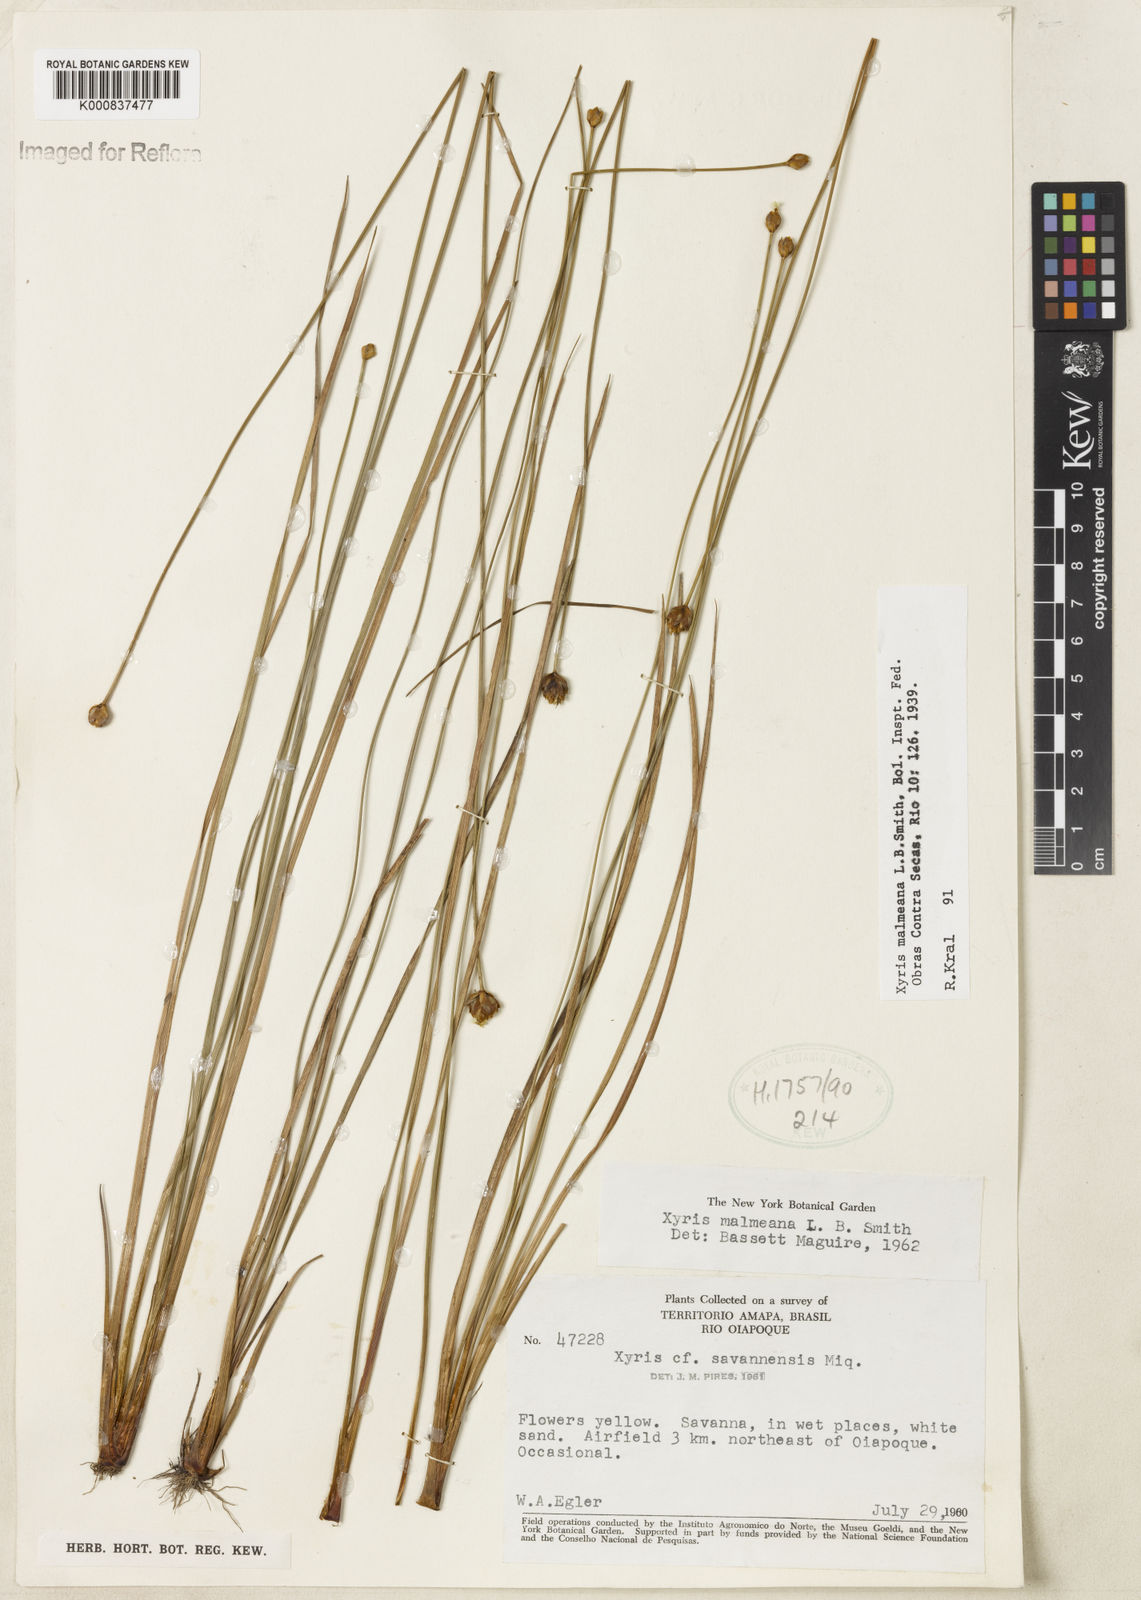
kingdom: Plantae
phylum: Tracheophyta
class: Liliopsida
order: Poales
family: Xyridaceae
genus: Xyris
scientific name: Xyris malmeana
